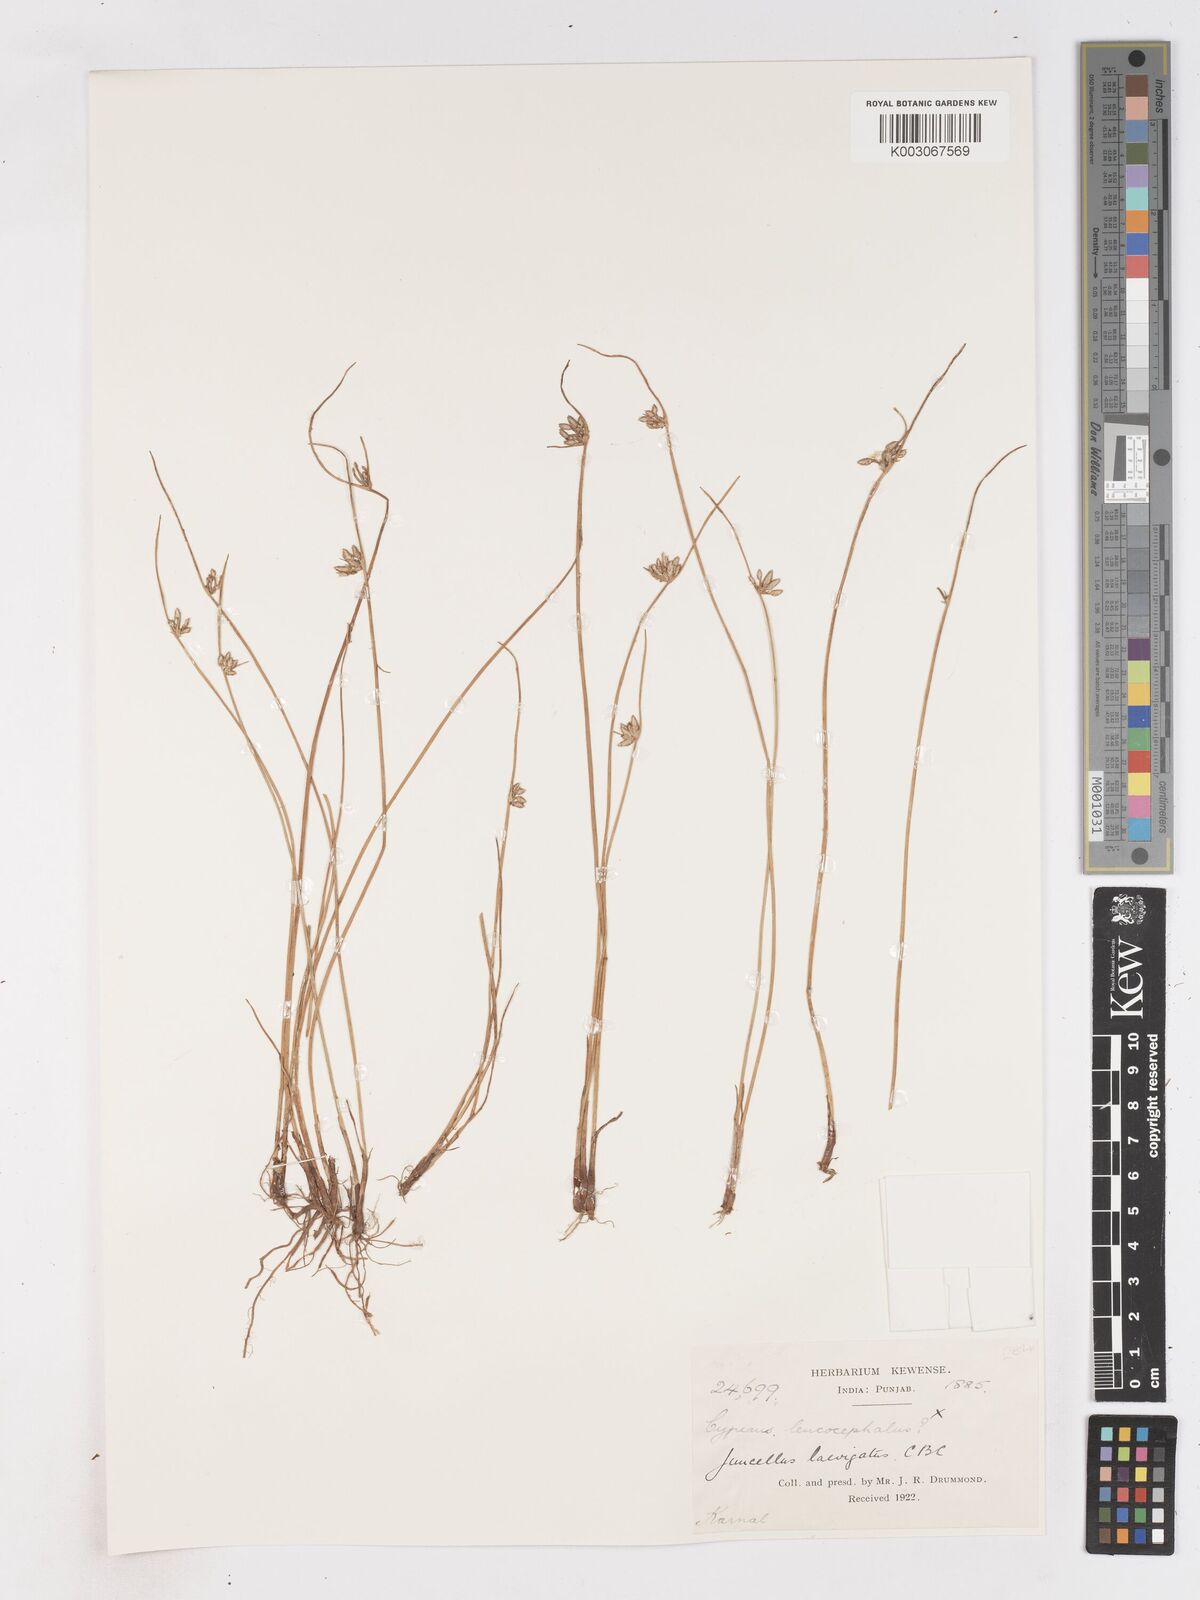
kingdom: Plantae
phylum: Tracheophyta
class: Liliopsida
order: Poales
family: Cyperaceae
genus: Cyperus
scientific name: Cyperus laevigatus
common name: Smooth flat sedge
